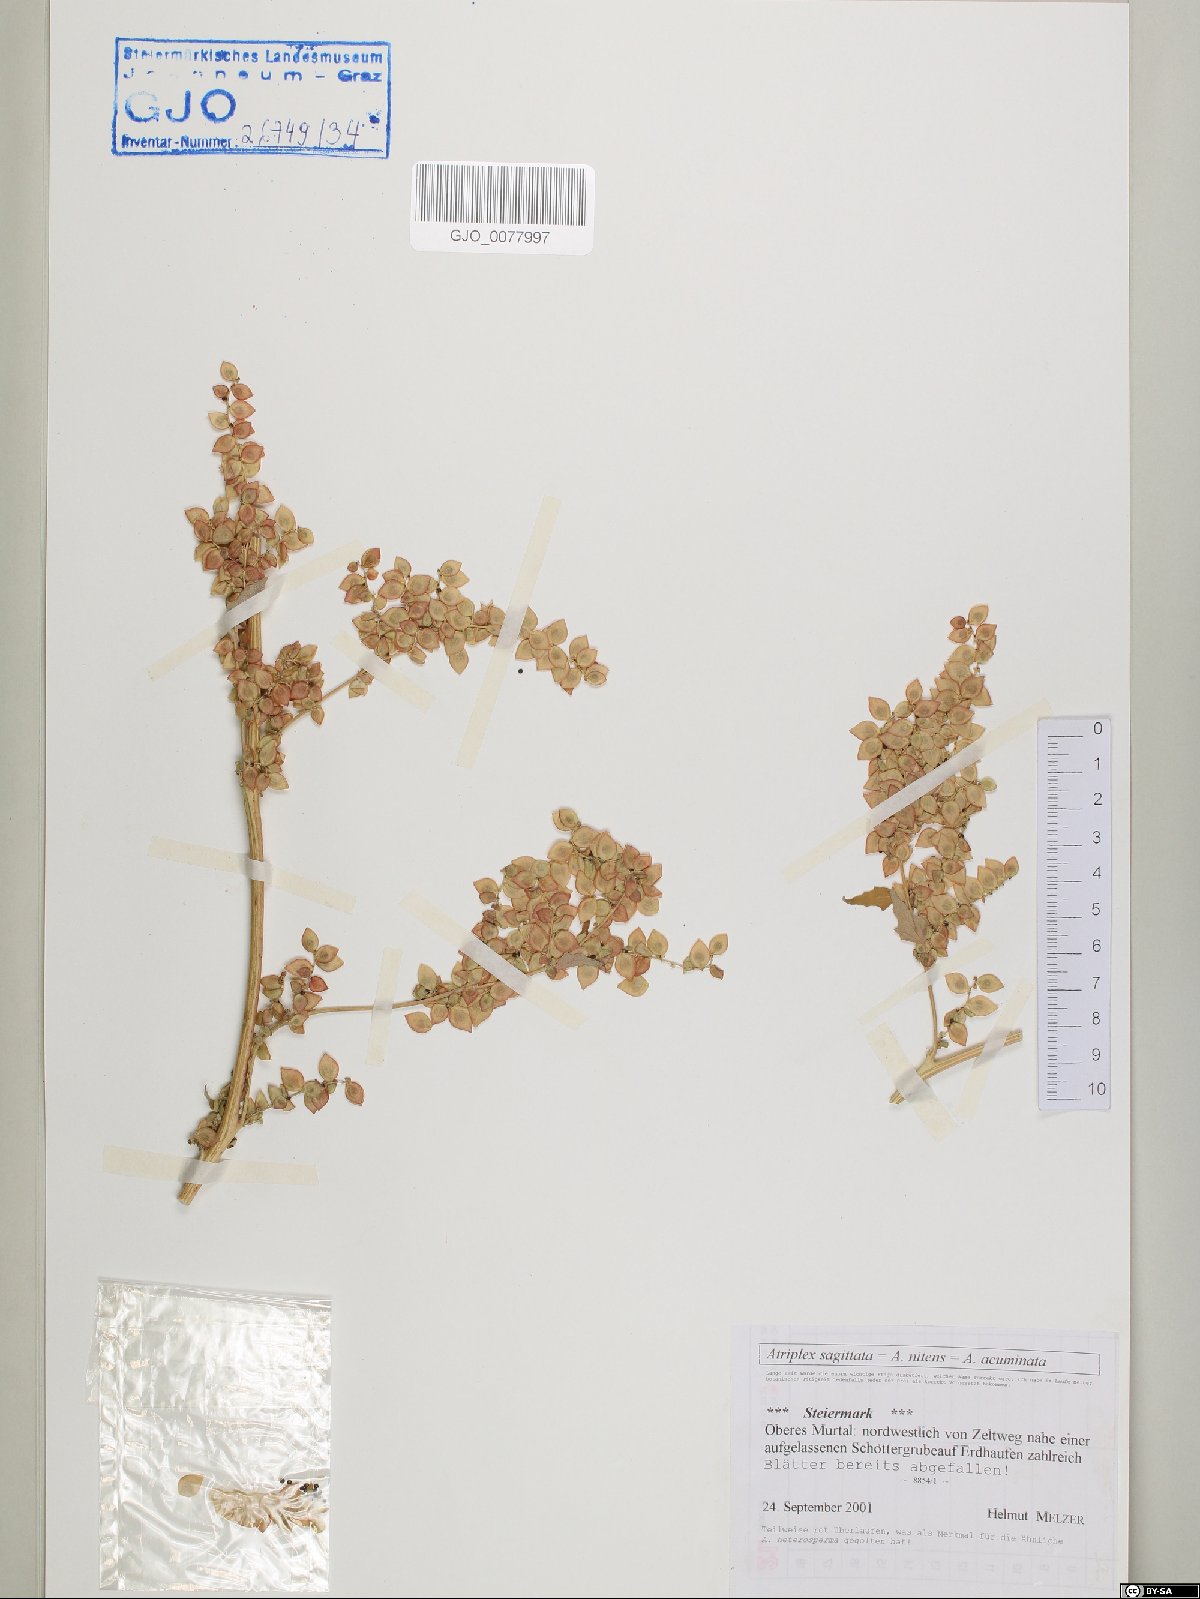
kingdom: Plantae
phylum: Tracheophyta
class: Magnoliopsida
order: Caryophyllales
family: Amaranthaceae
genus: Atriplex
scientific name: Atriplex sagittata
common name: Purple orache
